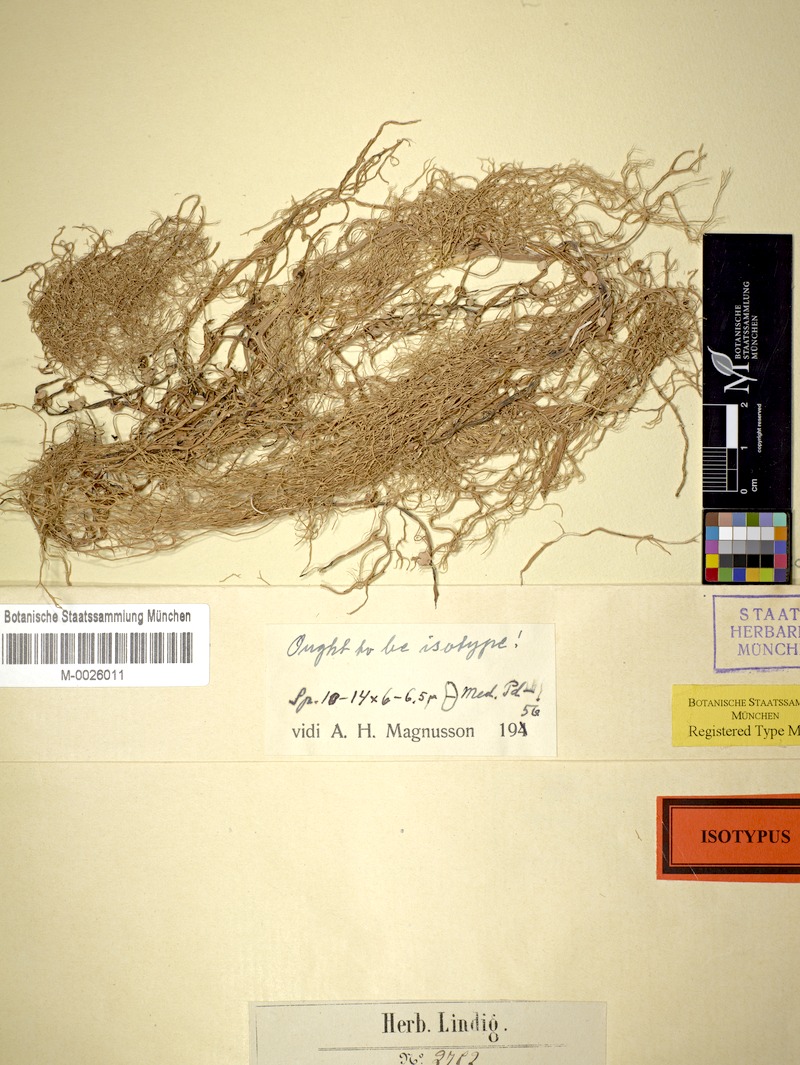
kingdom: Fungi
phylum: Ascomycota
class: Lecanoromycetes
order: Lecanorales
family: Ramalinaceae
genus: Ramalina
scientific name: Ramalina bogotensis
